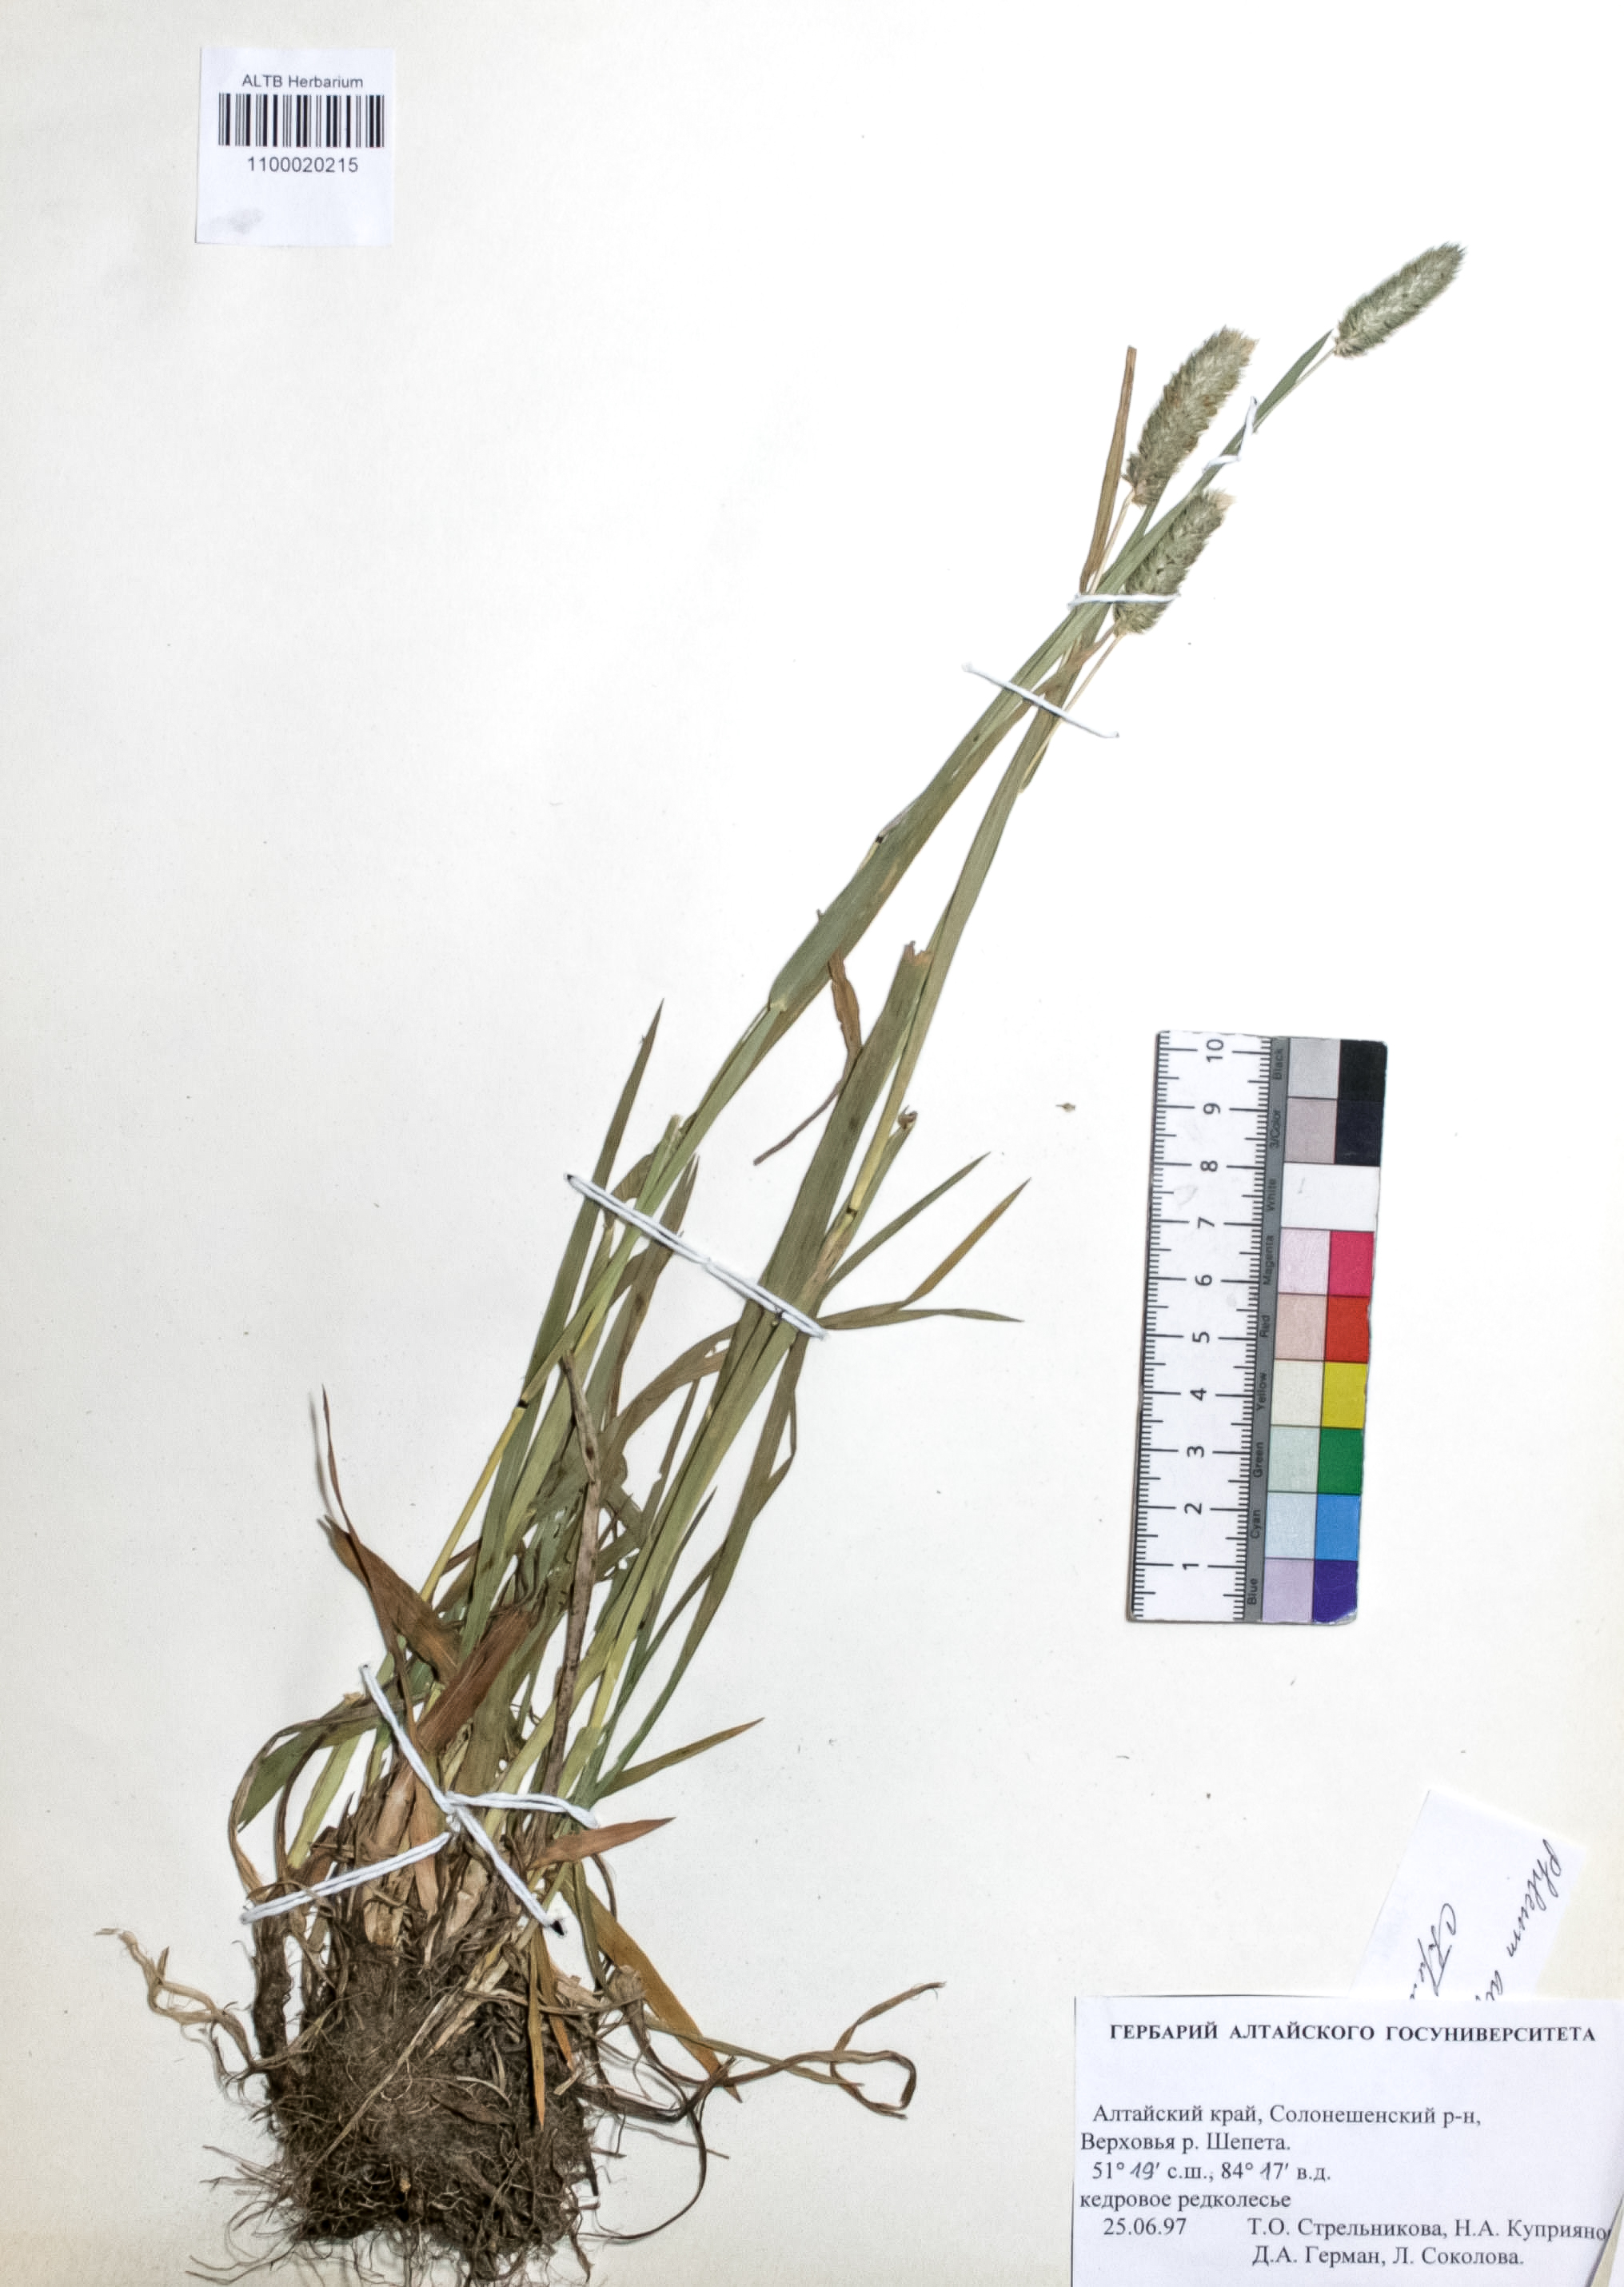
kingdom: Plantae
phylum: Tracheophyta
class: Liliopsida
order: Poales
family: Poaceae
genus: Phleum
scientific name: Phleum alpinum
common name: Alpine cat's-tail
